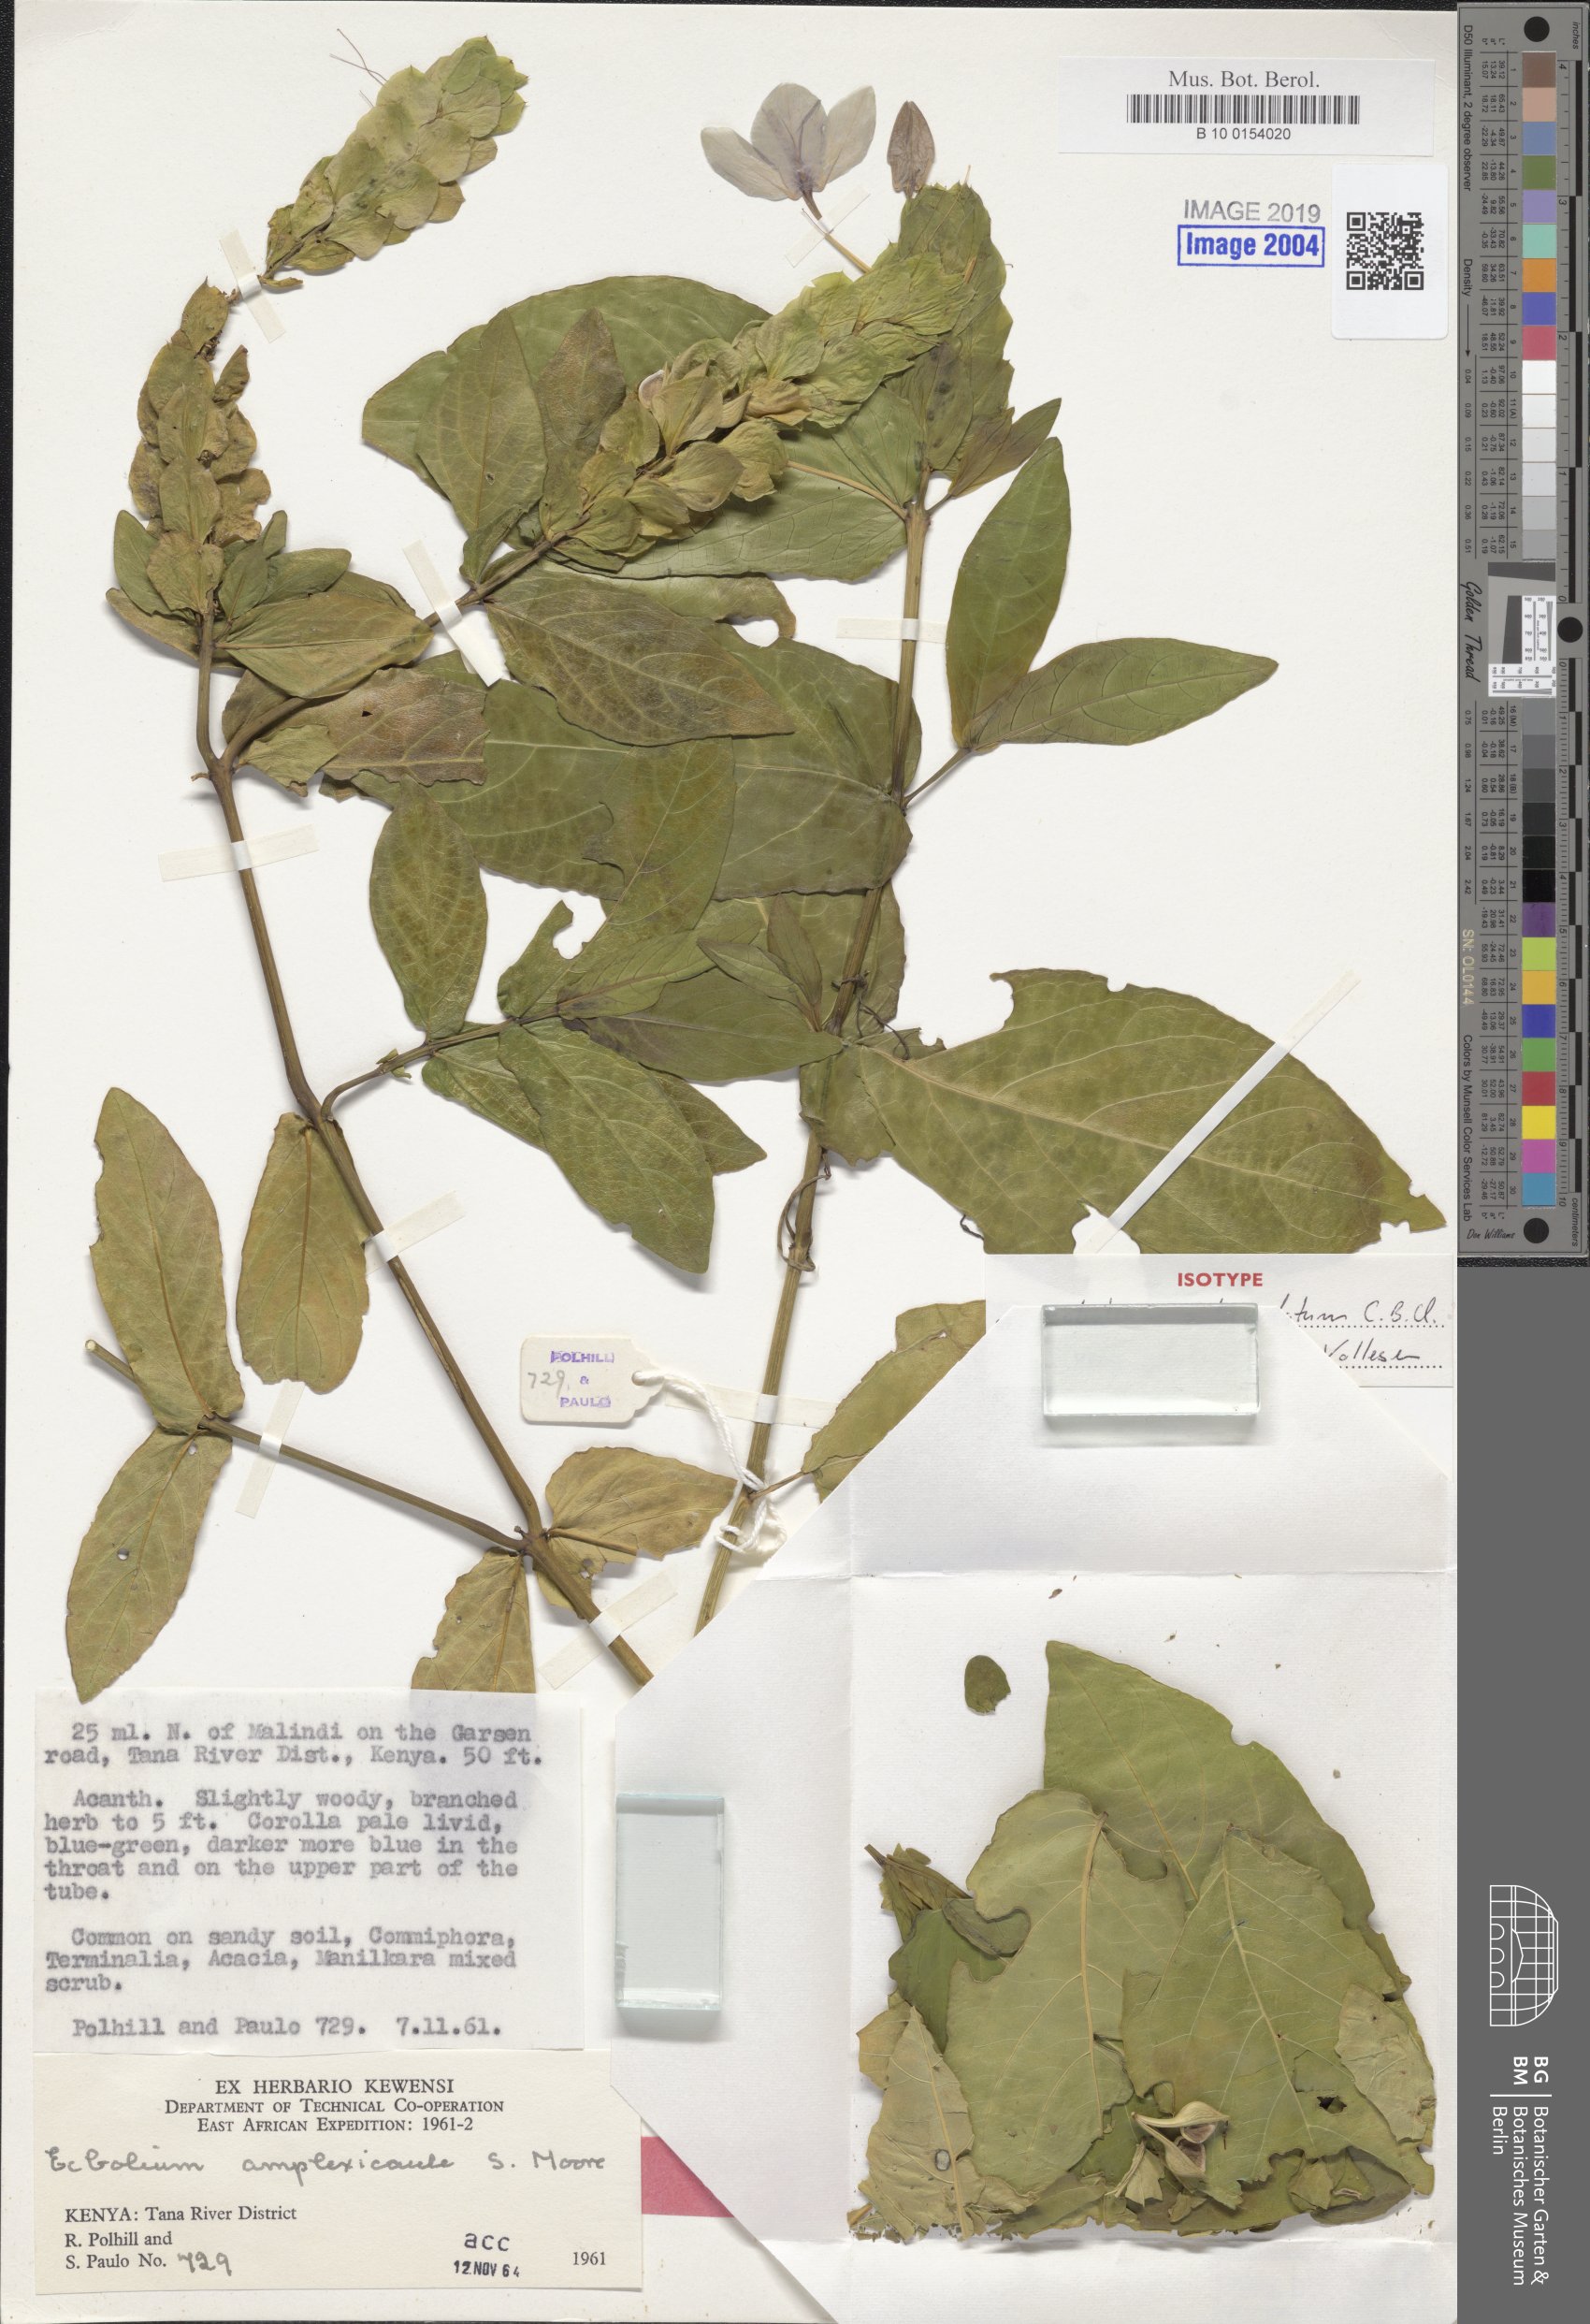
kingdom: Plantae
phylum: Tracheophyta
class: Magnoliopsida
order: Lamiales
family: Acanthaceae
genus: Ecbolium
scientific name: Ecbolium subcordatum
